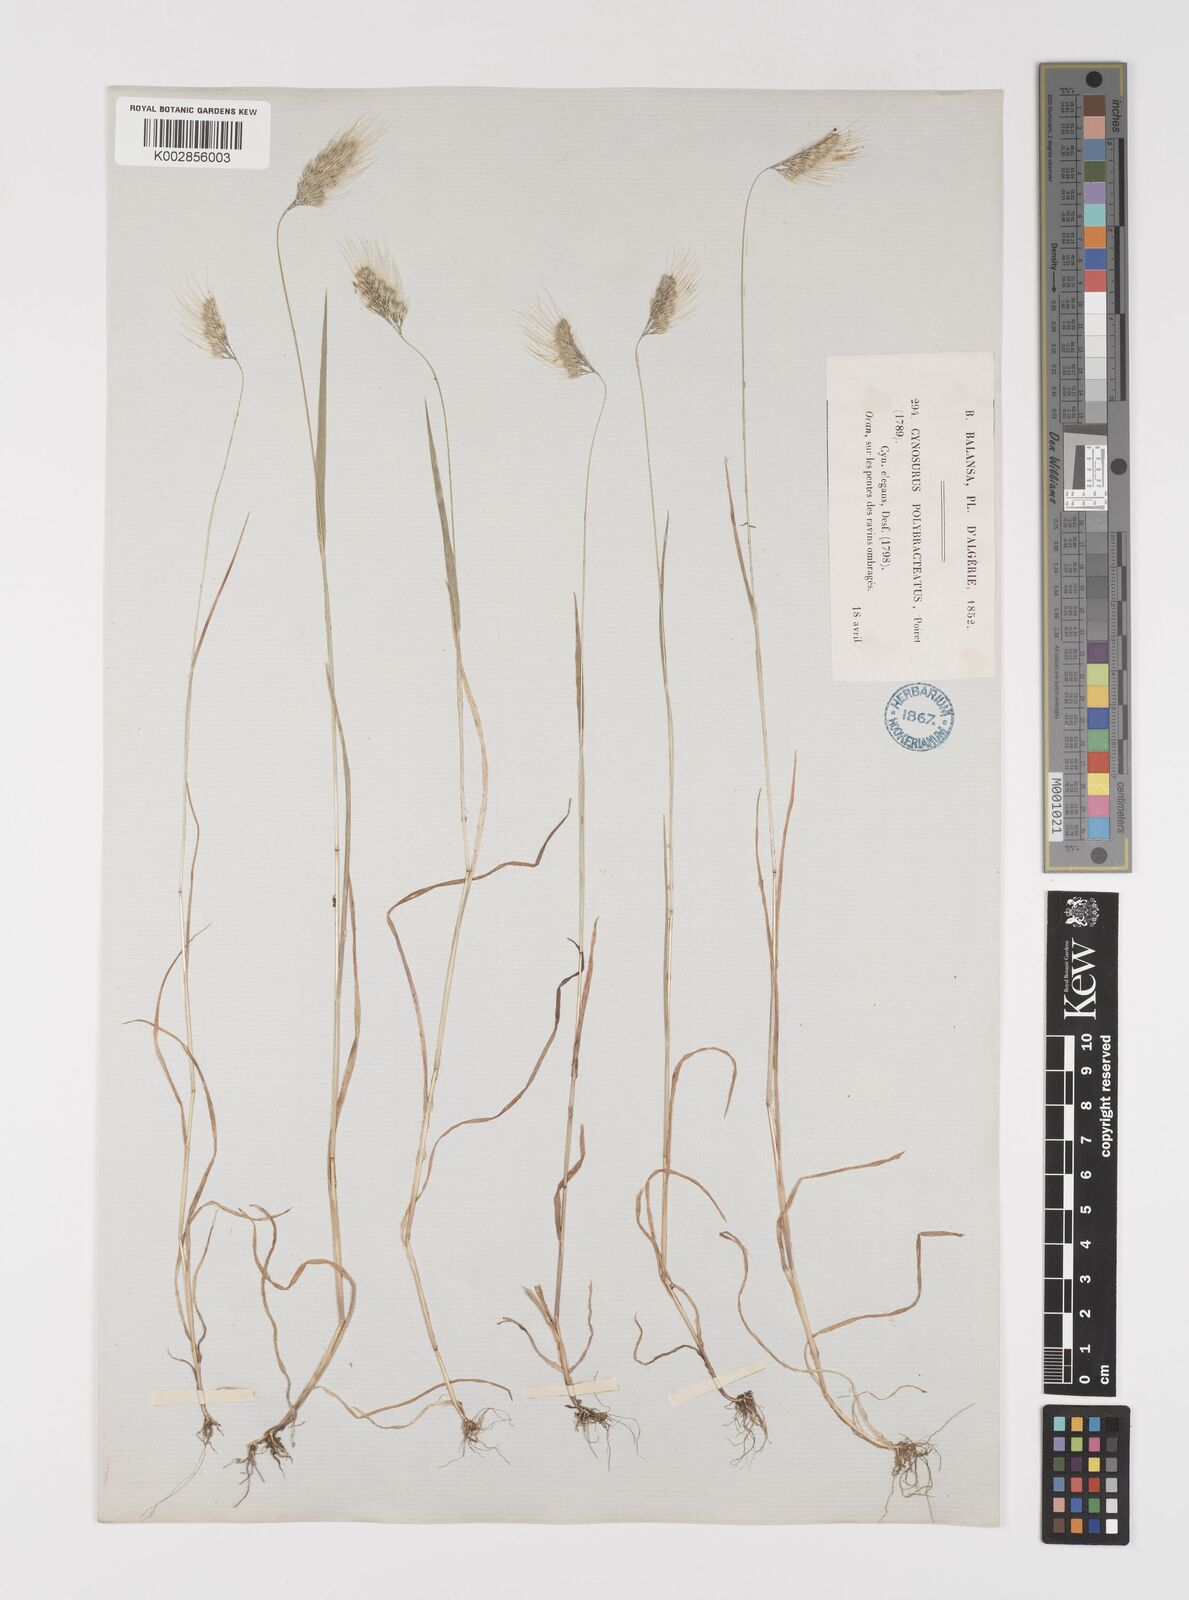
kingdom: Plantae
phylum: Tracheophyta
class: Liliopsida
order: Poales
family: Poaceae
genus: Cynosurus
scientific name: Cynosurus elegans
